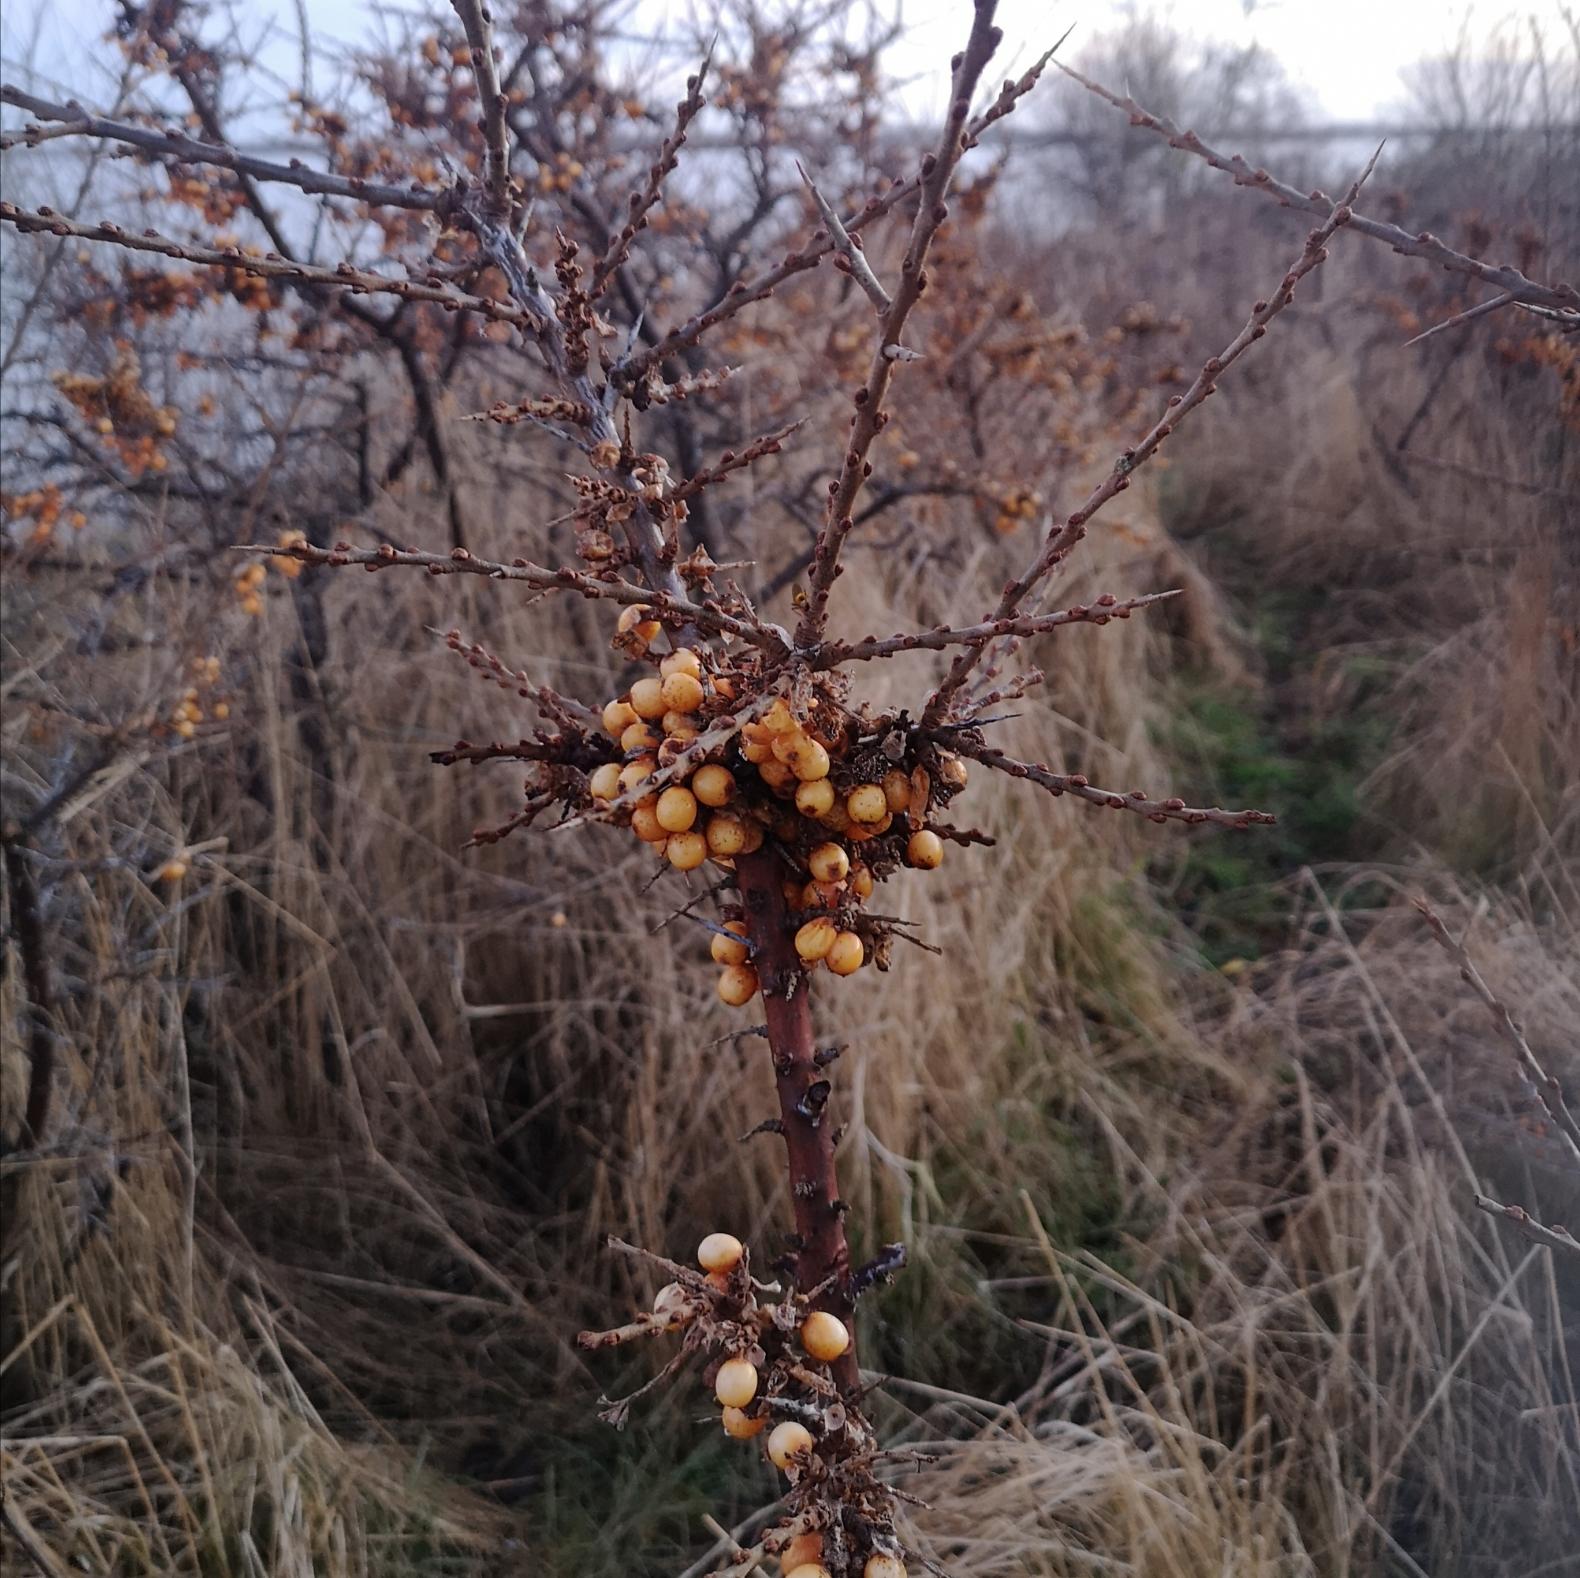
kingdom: Plantae
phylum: Tracheophyta
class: Magnoliopsida
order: Rosales
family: Elaeagnaceae
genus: Hippophae
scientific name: Hippophae rhamnoides
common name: Havtorn
